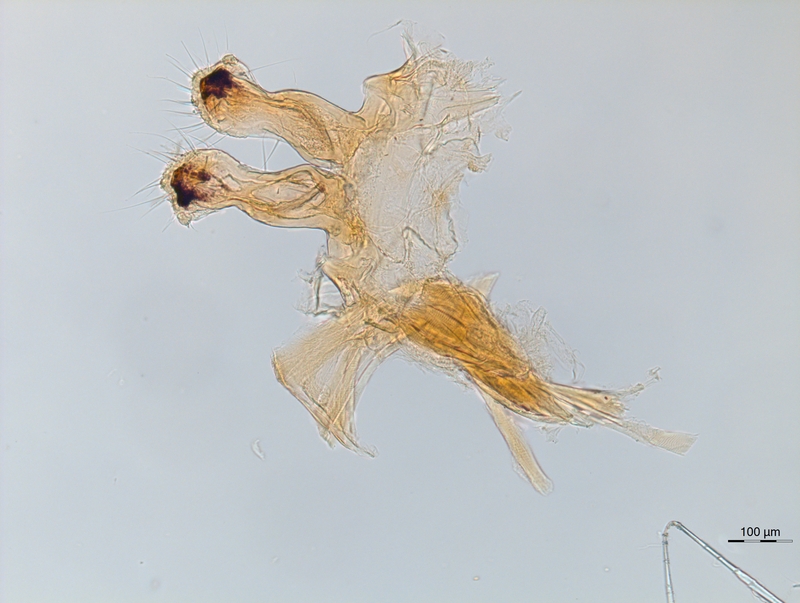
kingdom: Animalia
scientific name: Animalia
